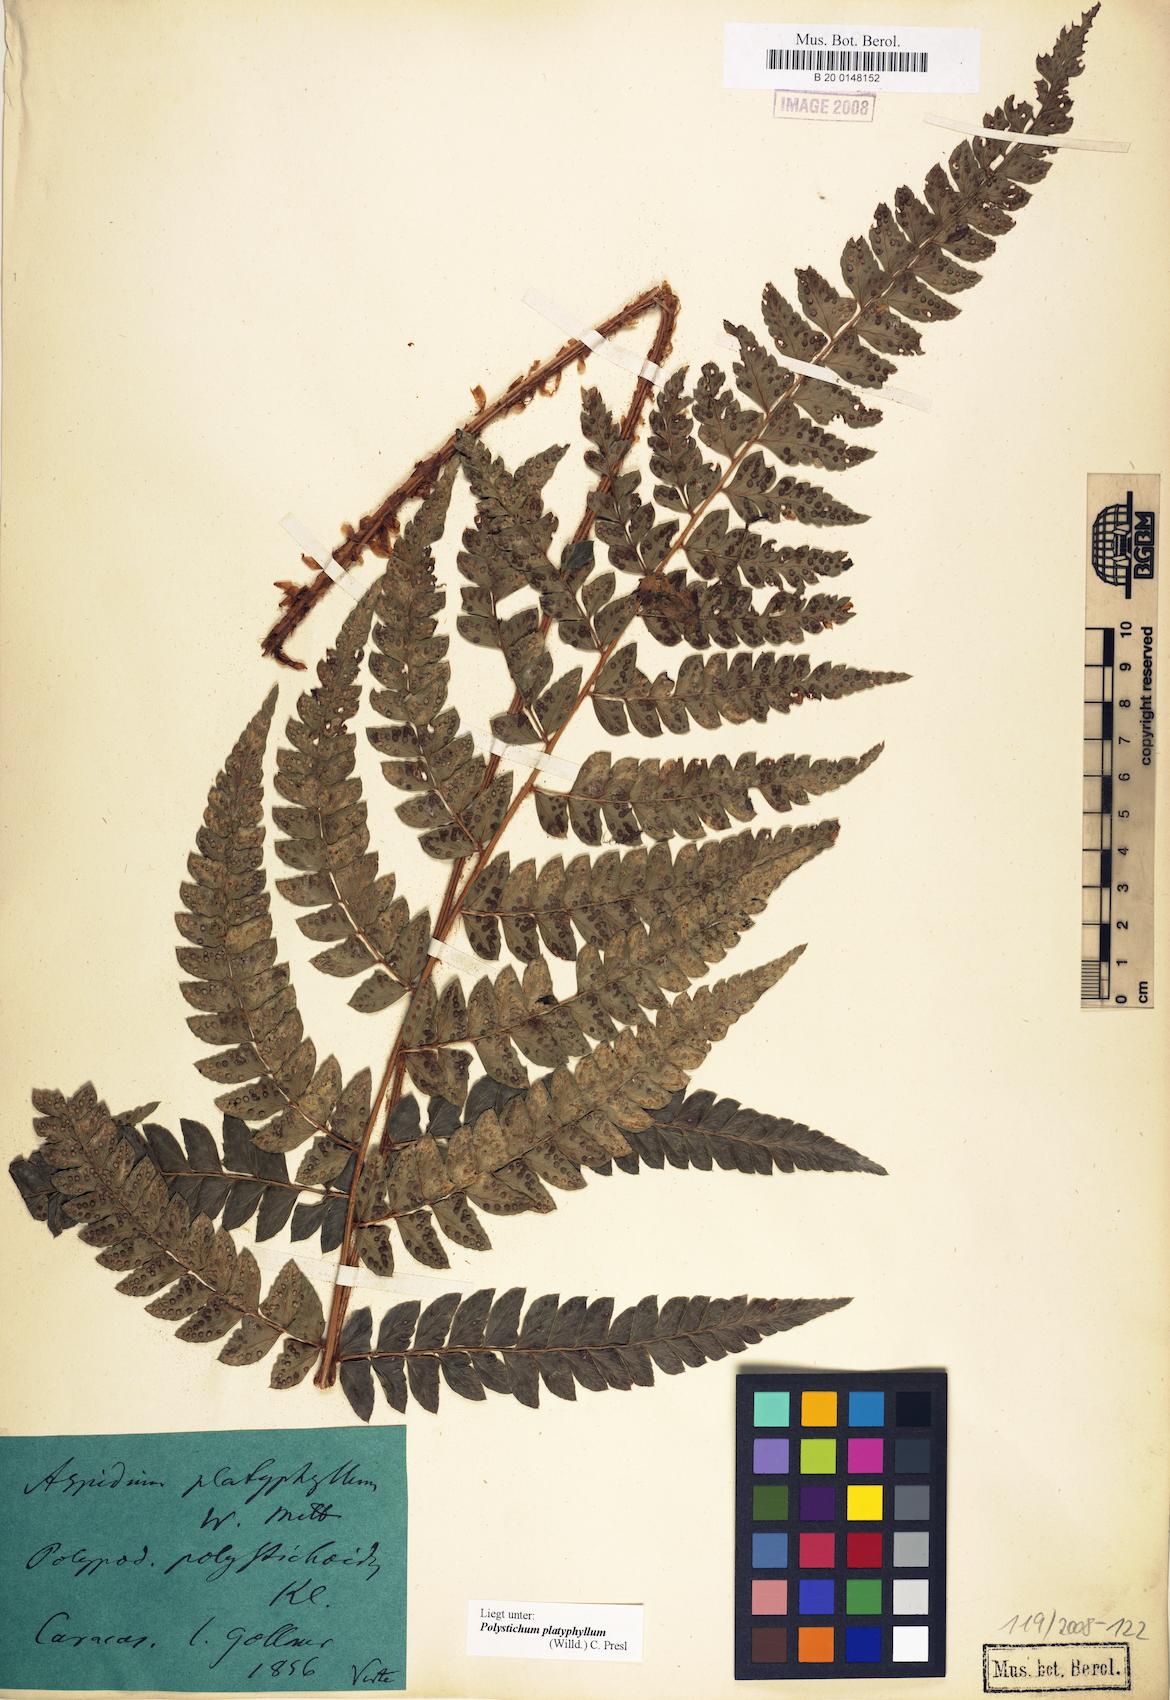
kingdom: Plantae
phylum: Tracheophyta
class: Polypodiopsida
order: Polypodiales
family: Dryopteridaceae
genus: Polystichum
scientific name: Polystichum platyphyllum
